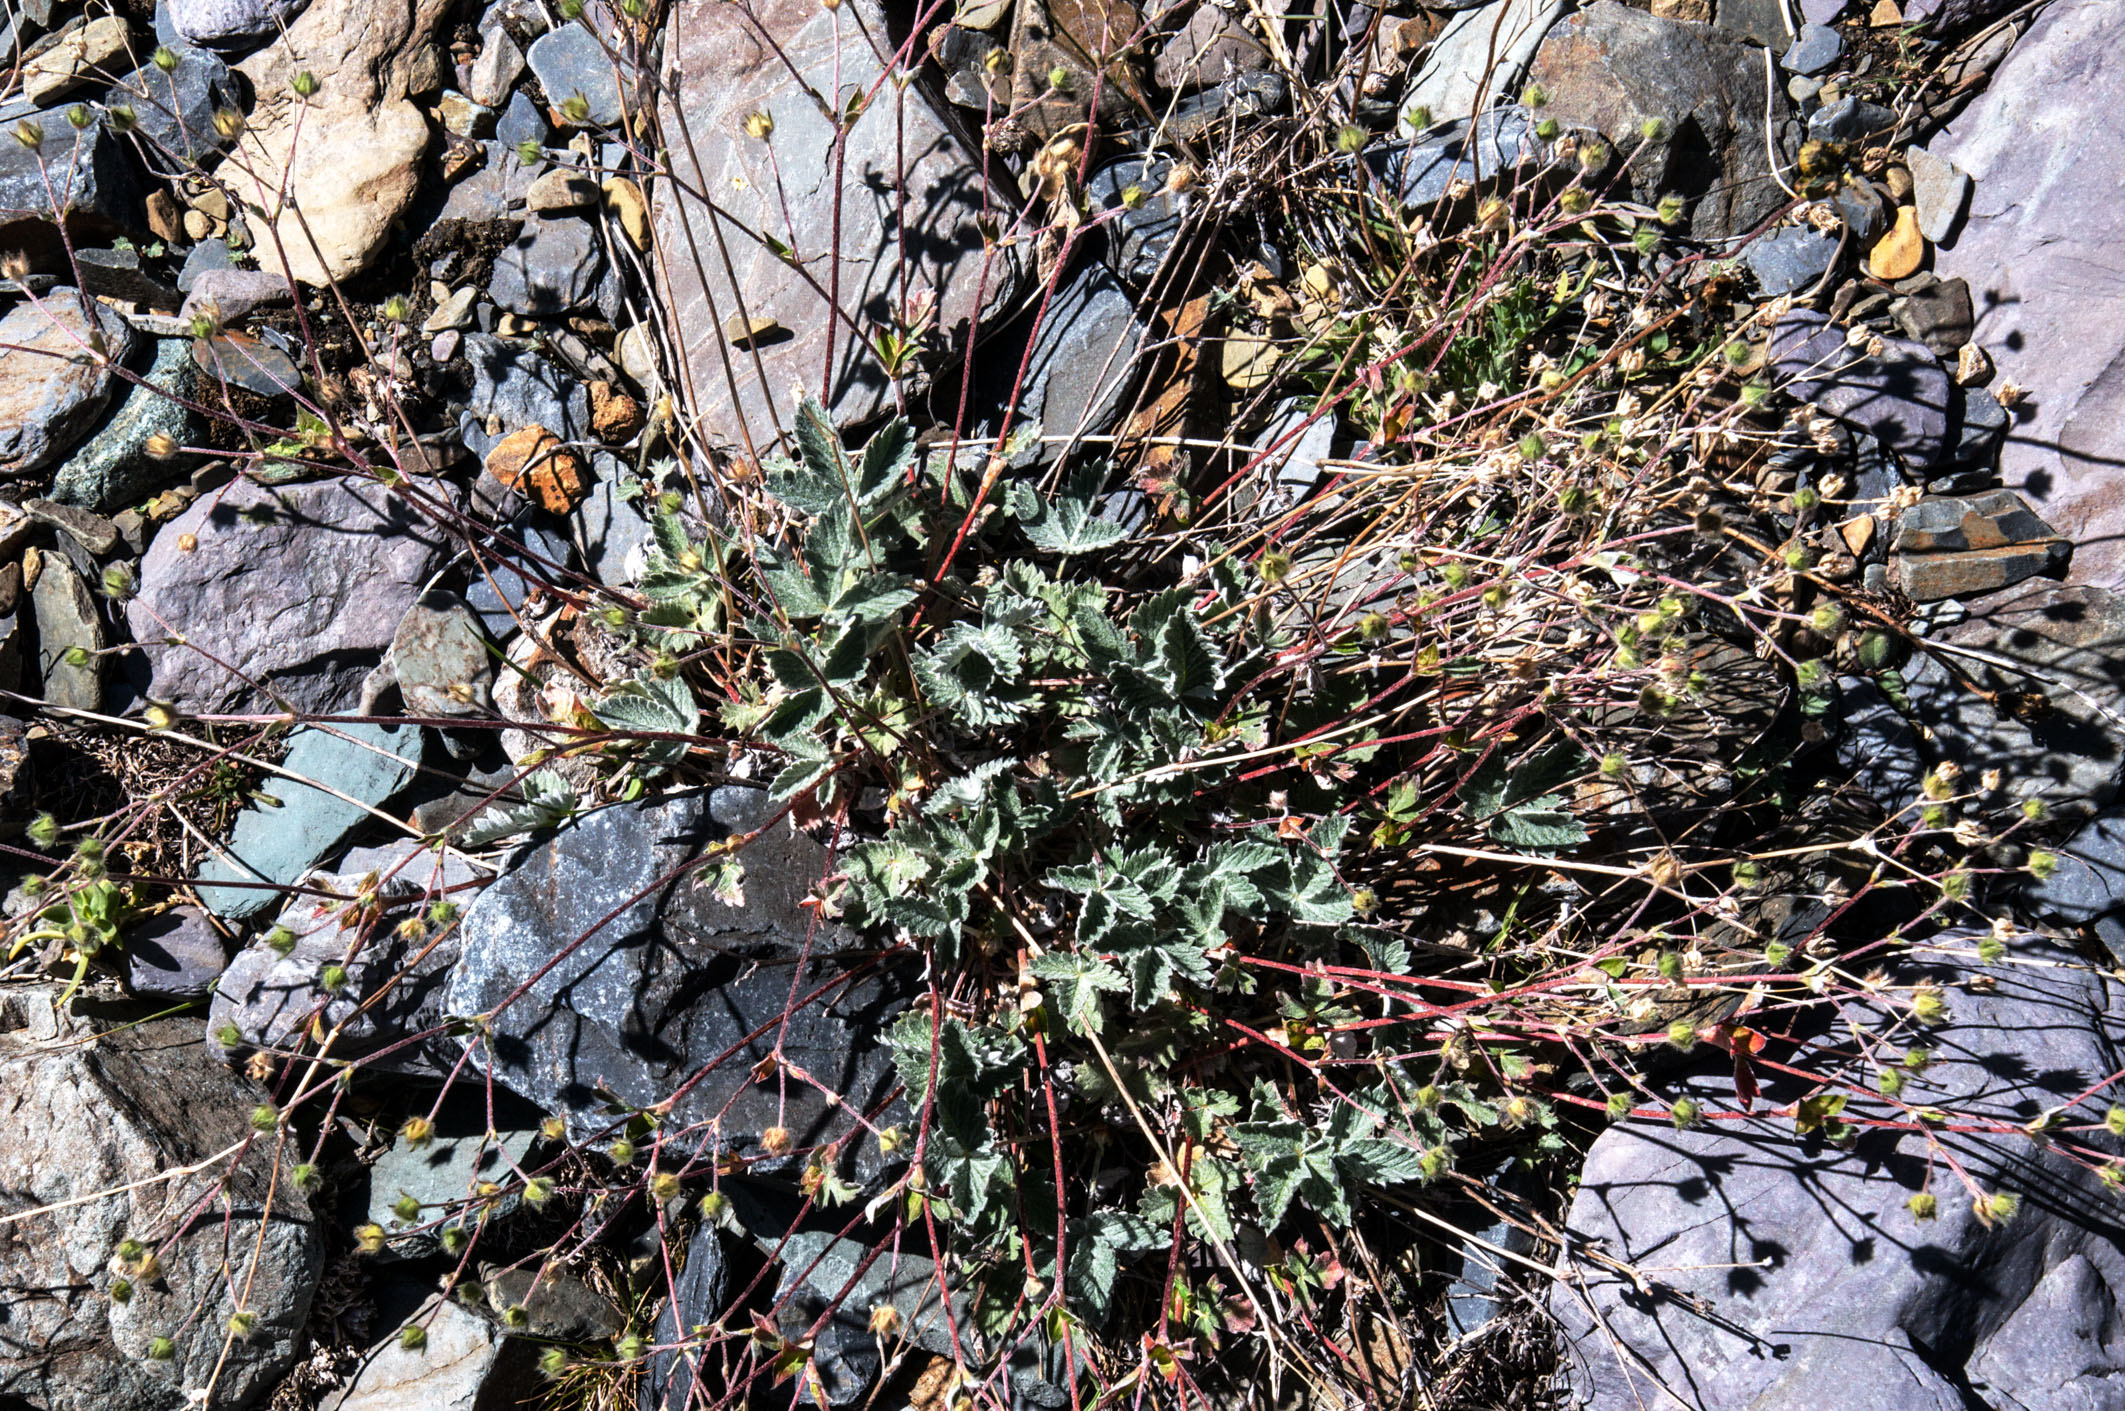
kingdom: Plantae
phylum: Tracheophyta
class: Magnoliopsida
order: Rosales
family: Rosaceae
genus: Potentilla
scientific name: Potentilla nivea
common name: Snow cinquefoil
